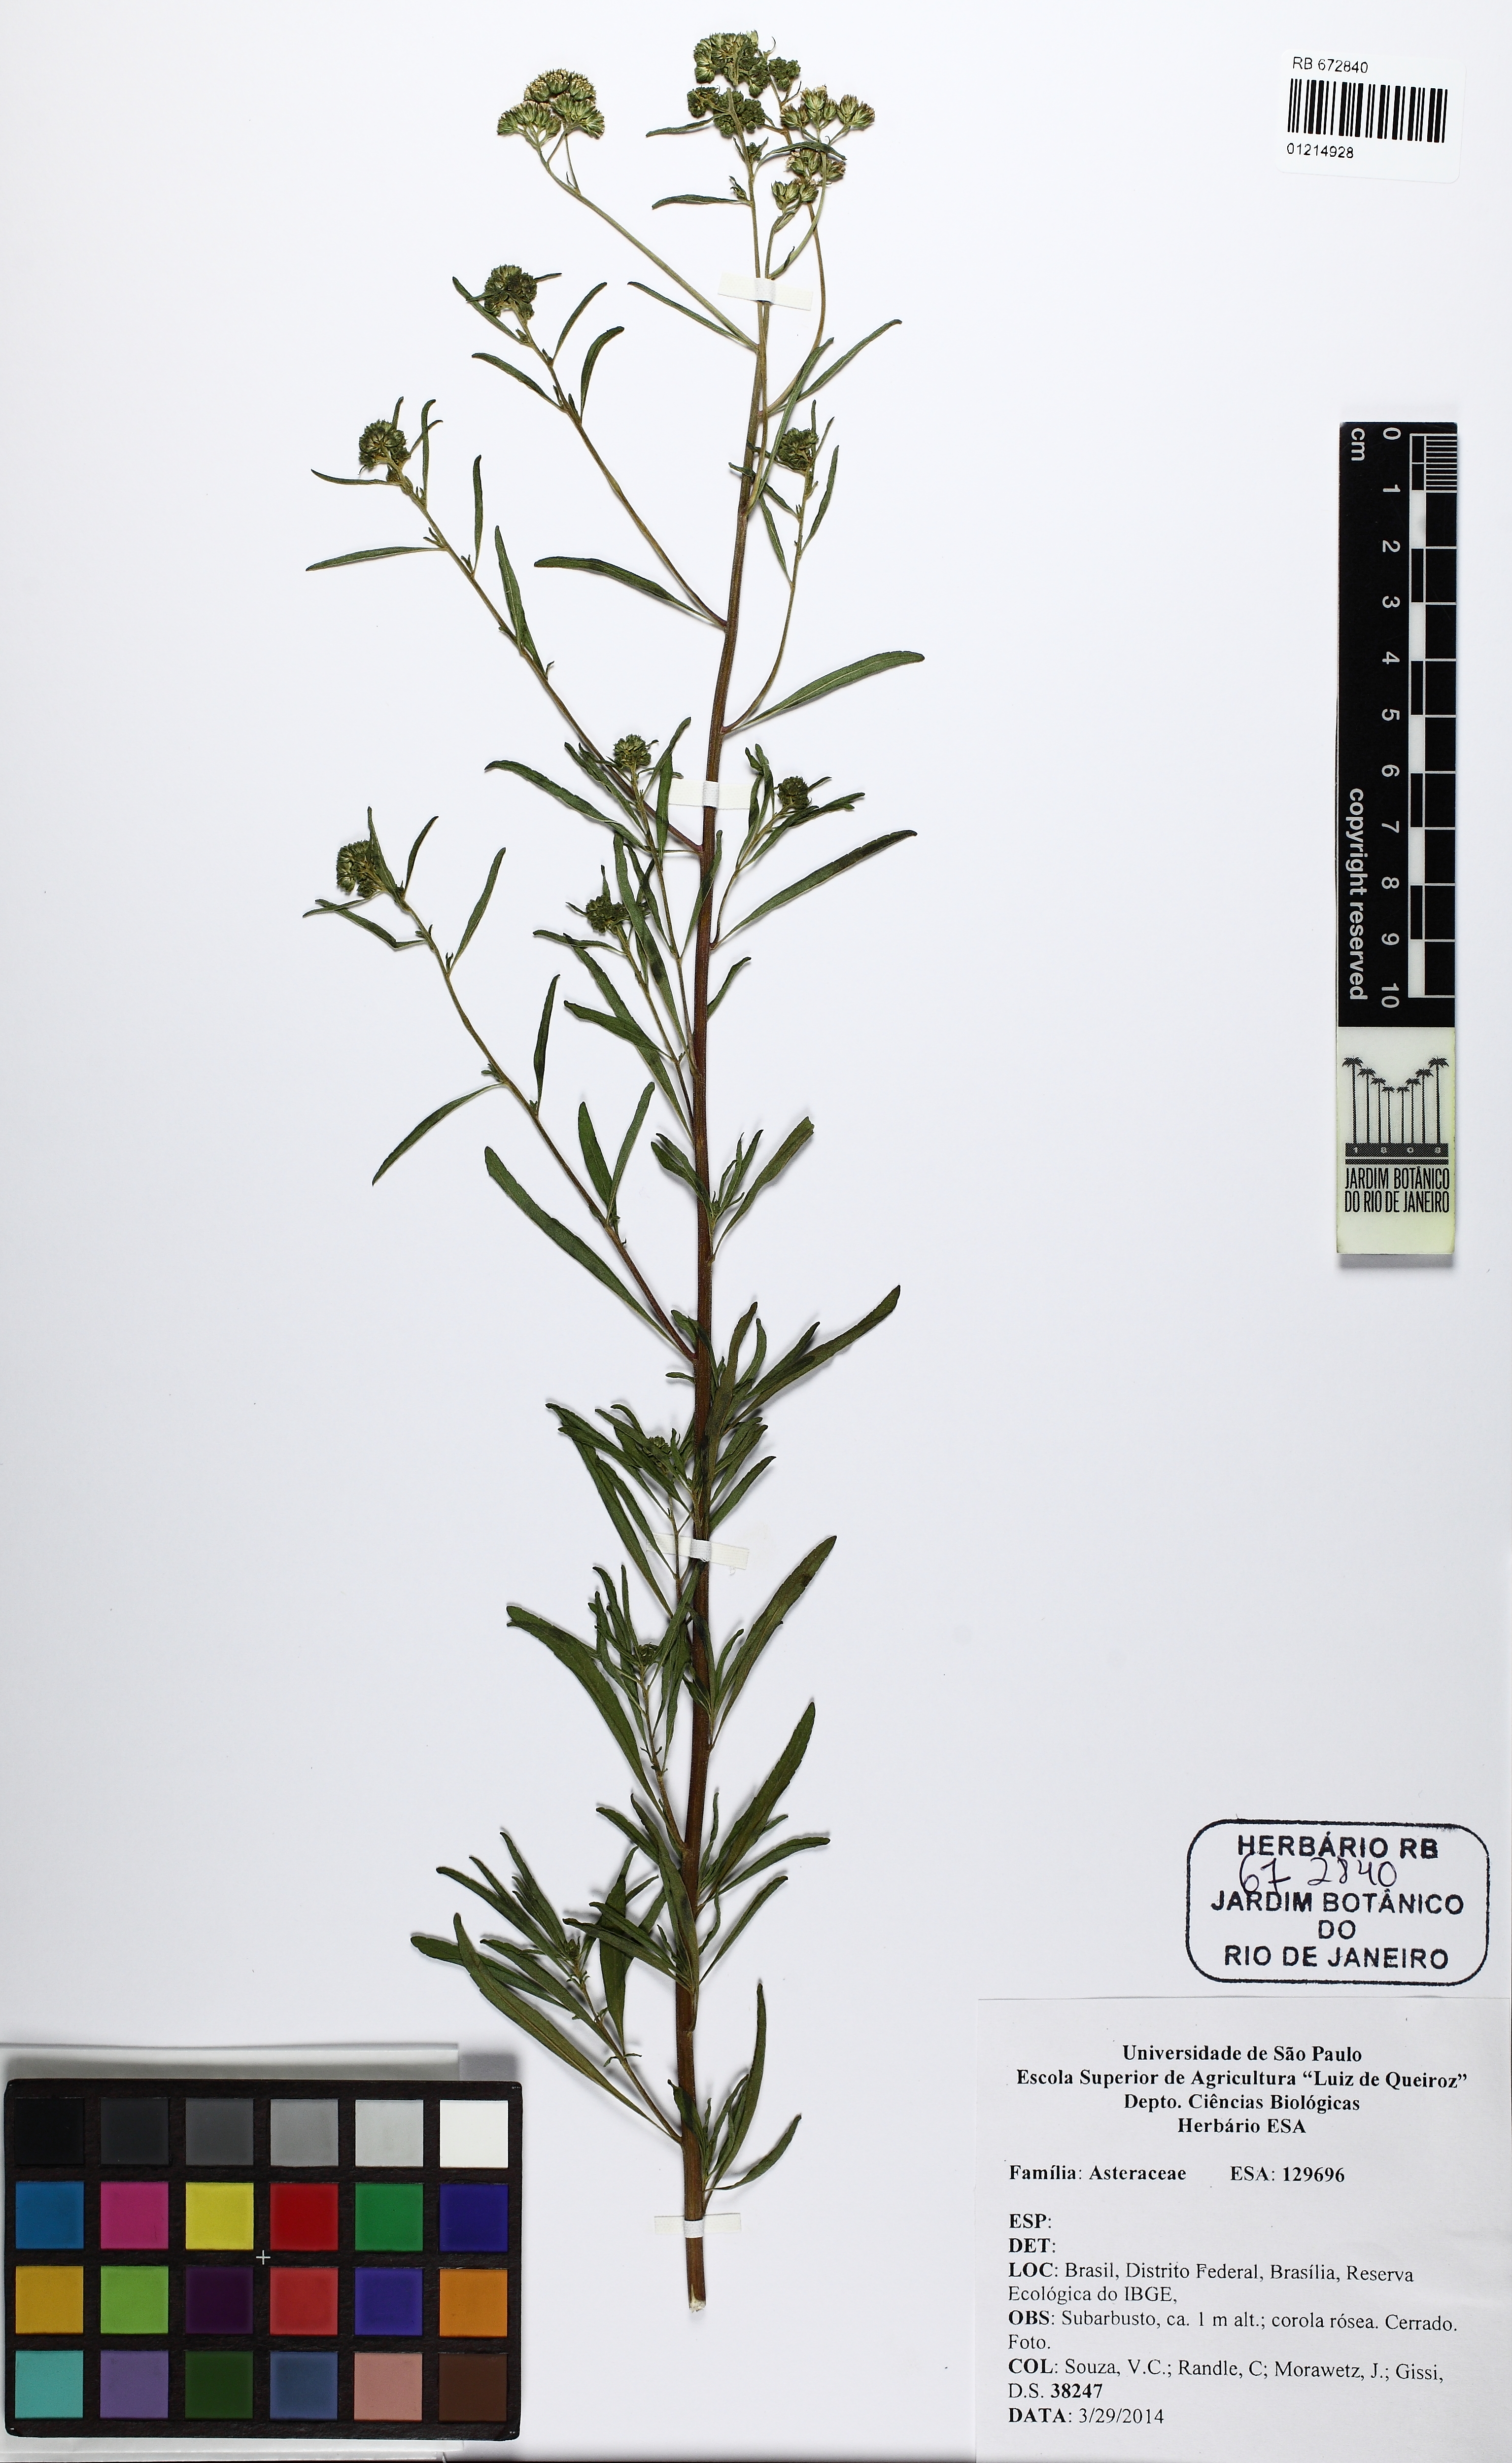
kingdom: Plantae
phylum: Tracheophyta
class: Magnoliopsida
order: Asterales
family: Asteraceae
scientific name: Asteraceae
